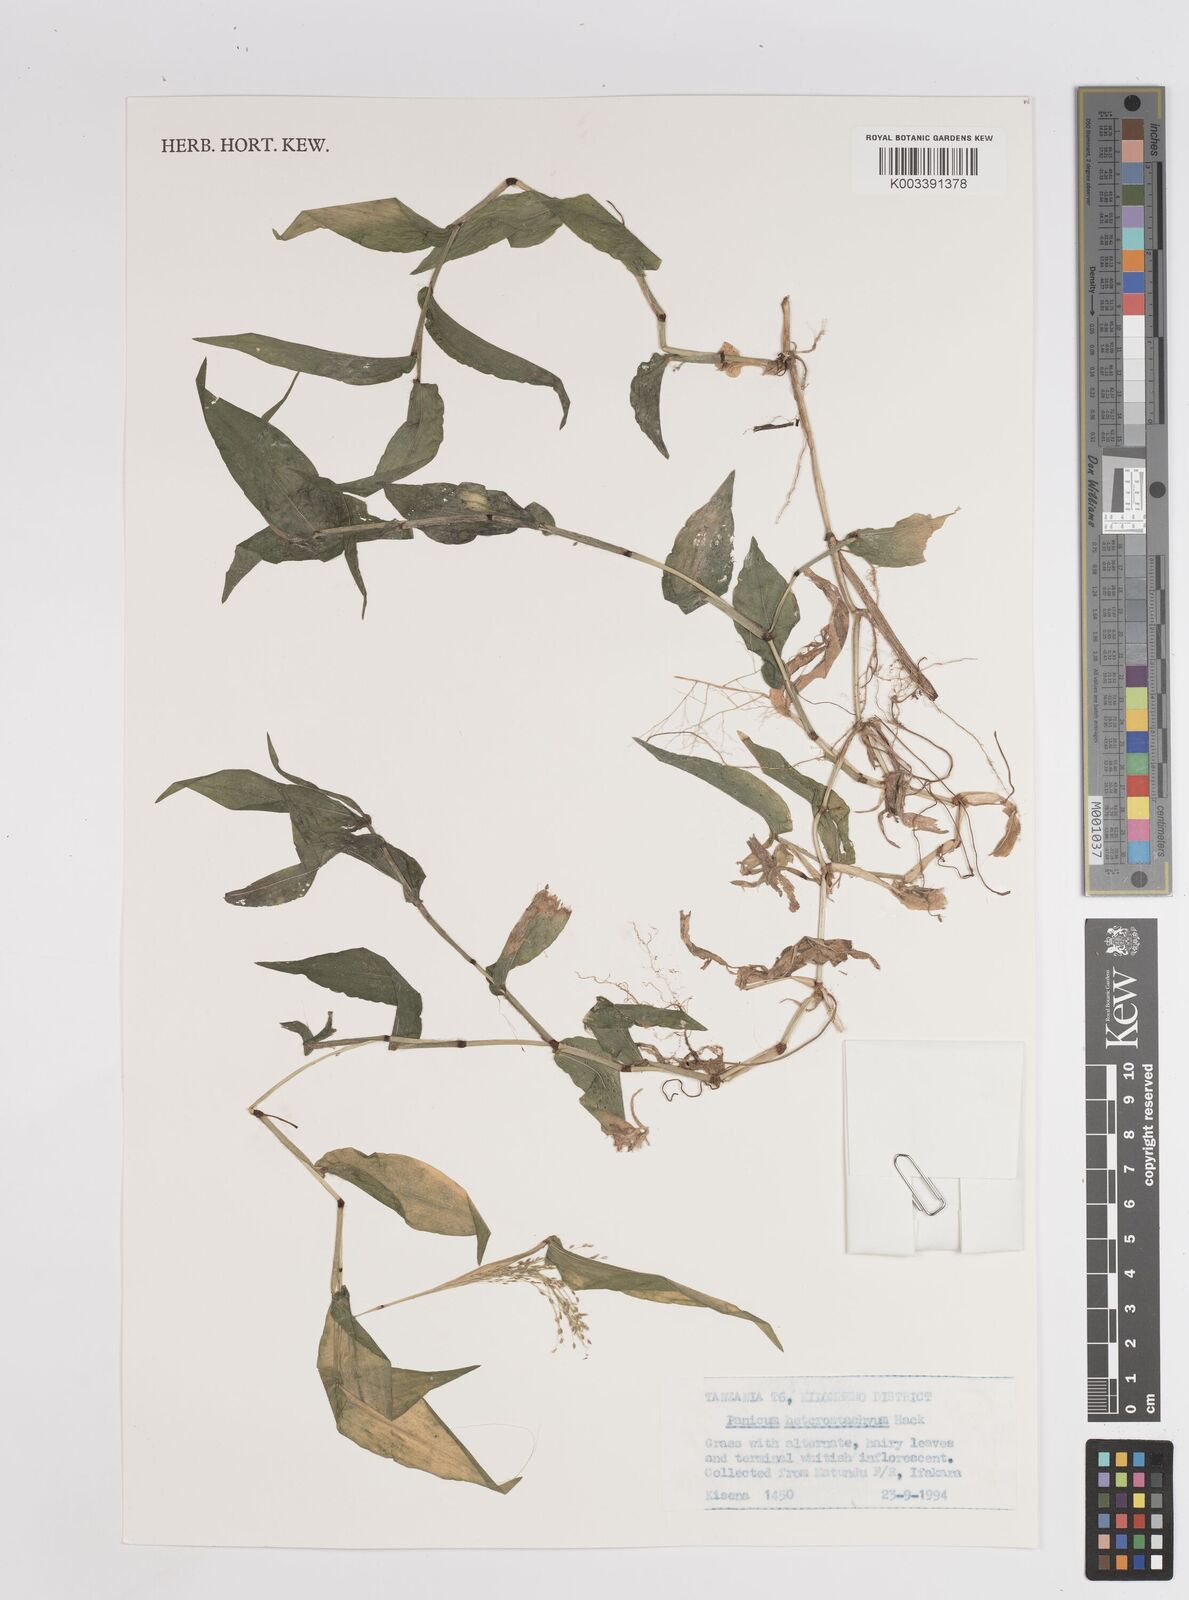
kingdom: Plantae
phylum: Tracheophyta
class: Liliopsida
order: Poales
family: Poaceae
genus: Panicum
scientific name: Panicum hirtum
